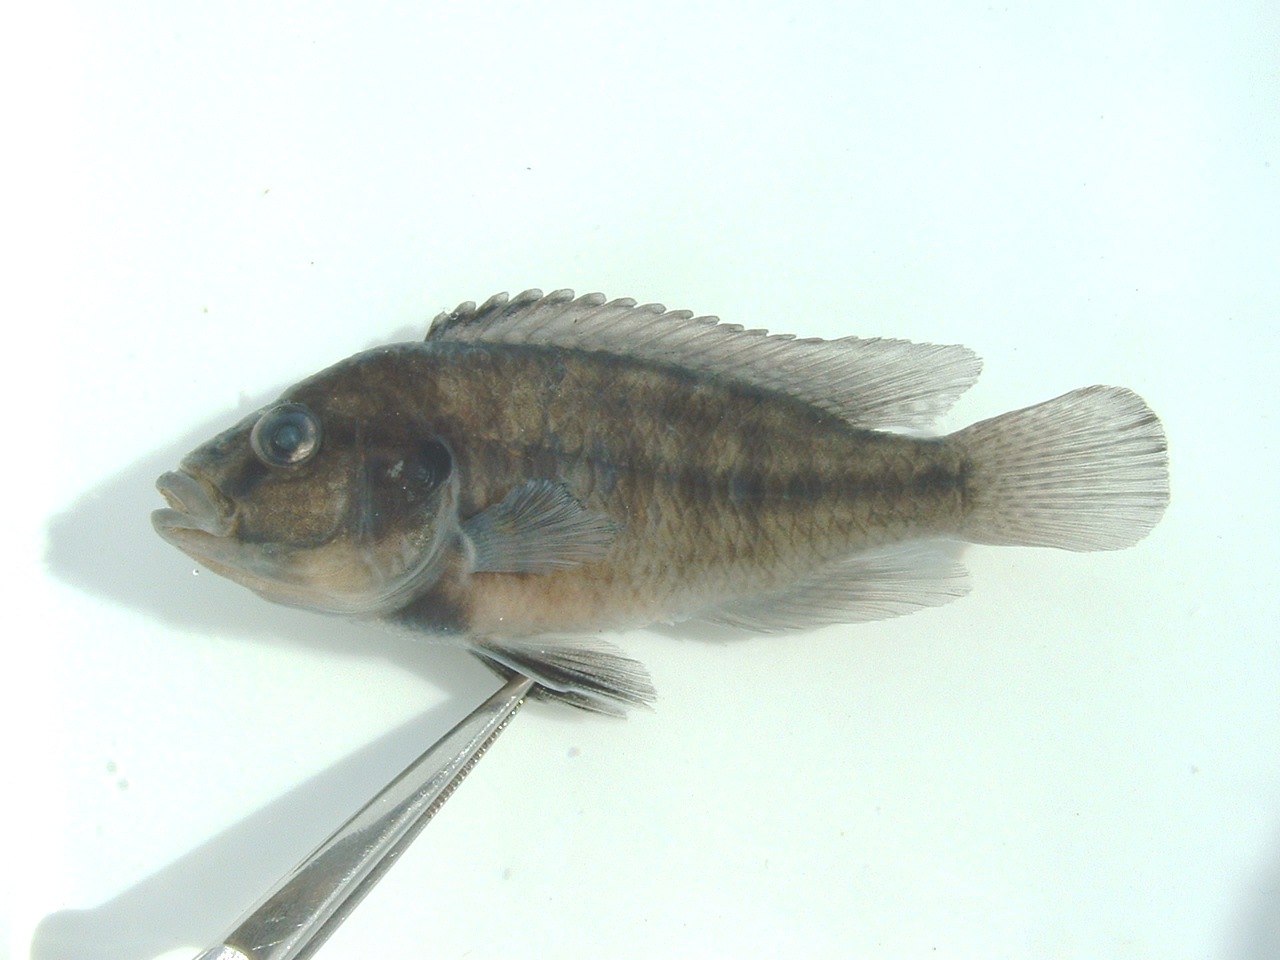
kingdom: Animalia
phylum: Chordata
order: Perciformes
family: Cichlidae
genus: Pseudocrenilabrus
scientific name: Pseudocrenilabrus philander
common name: Southern mouthbrooder
